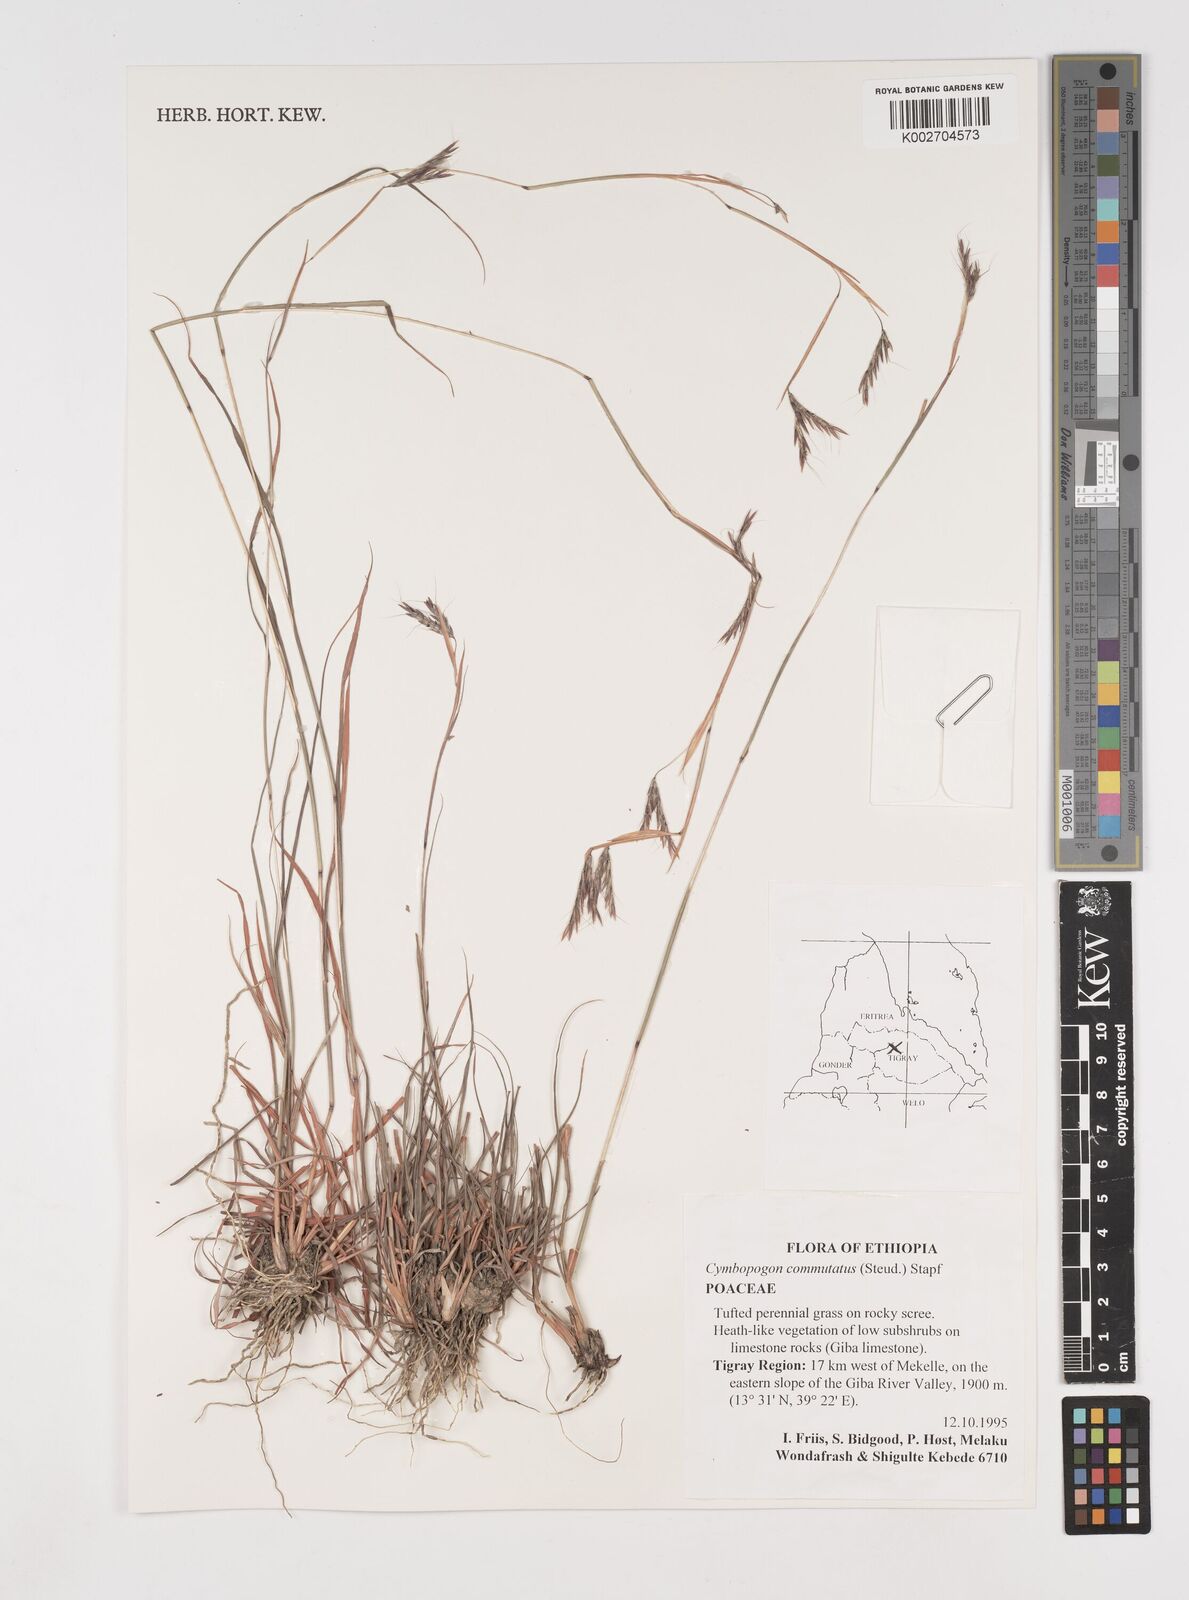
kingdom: Plantae
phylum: Tracheophyta
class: Liliopsida
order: Poales
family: Poaceae
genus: Cymbopogon
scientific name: Cymbopogon commutatus
